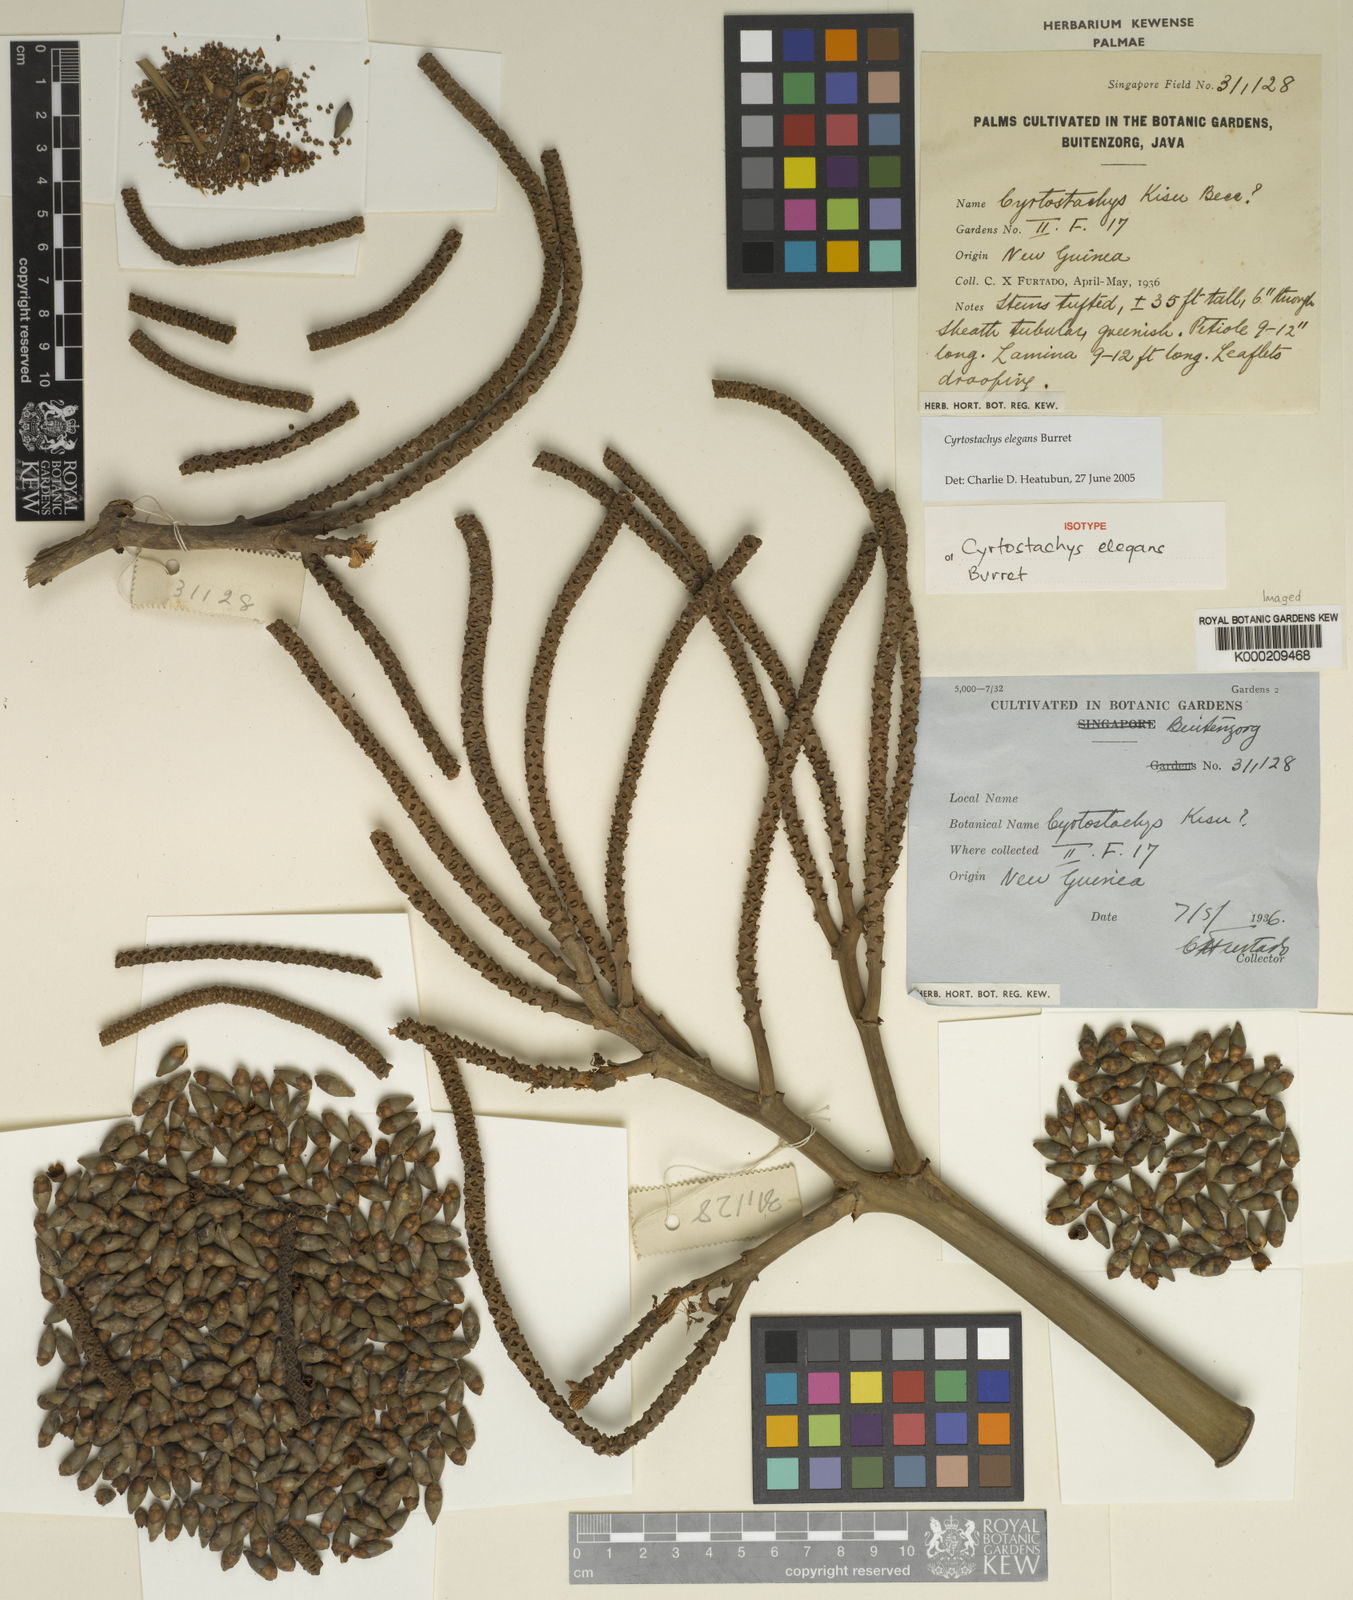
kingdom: Plantae
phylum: Tracheophyta
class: Liliopsida
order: Arecales
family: Arecaceae
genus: Cyrtostachys
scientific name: Cyrtostachys elegans
